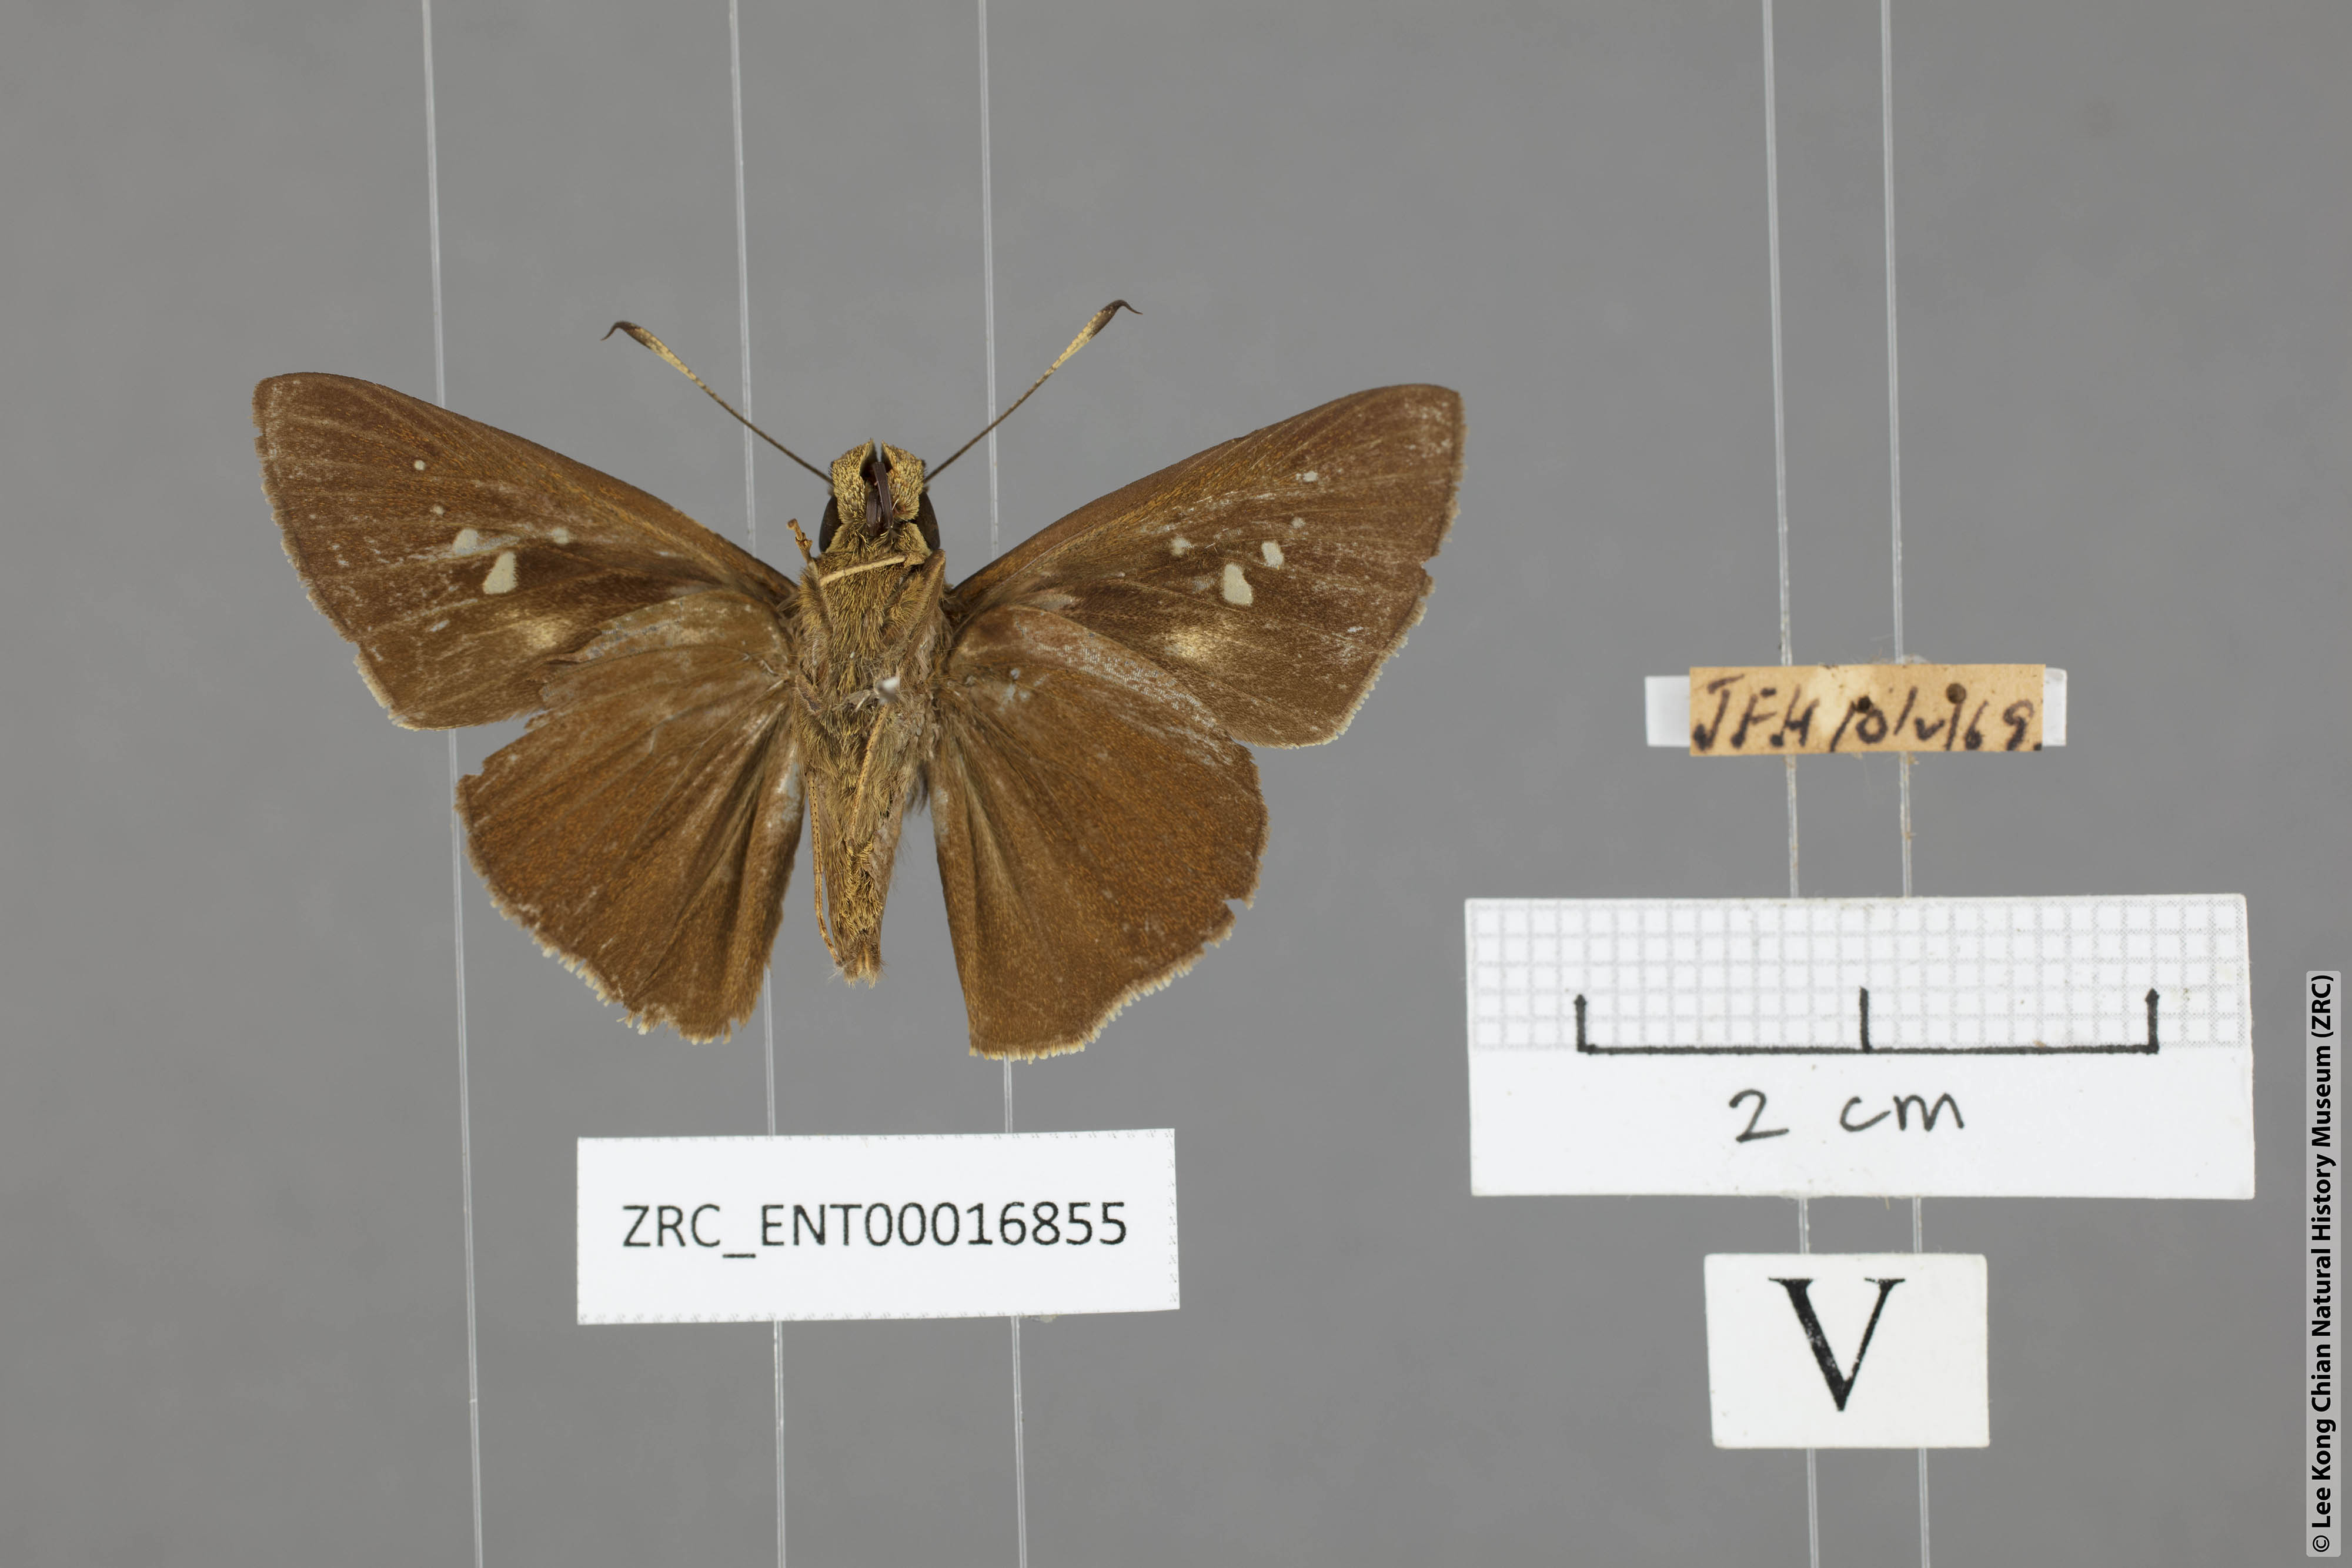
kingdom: Animalia
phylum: Arthropoda
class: Insecta
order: Lepidoptera
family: Hesperiidae
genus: Caltoris
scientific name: Caltoris sirius
